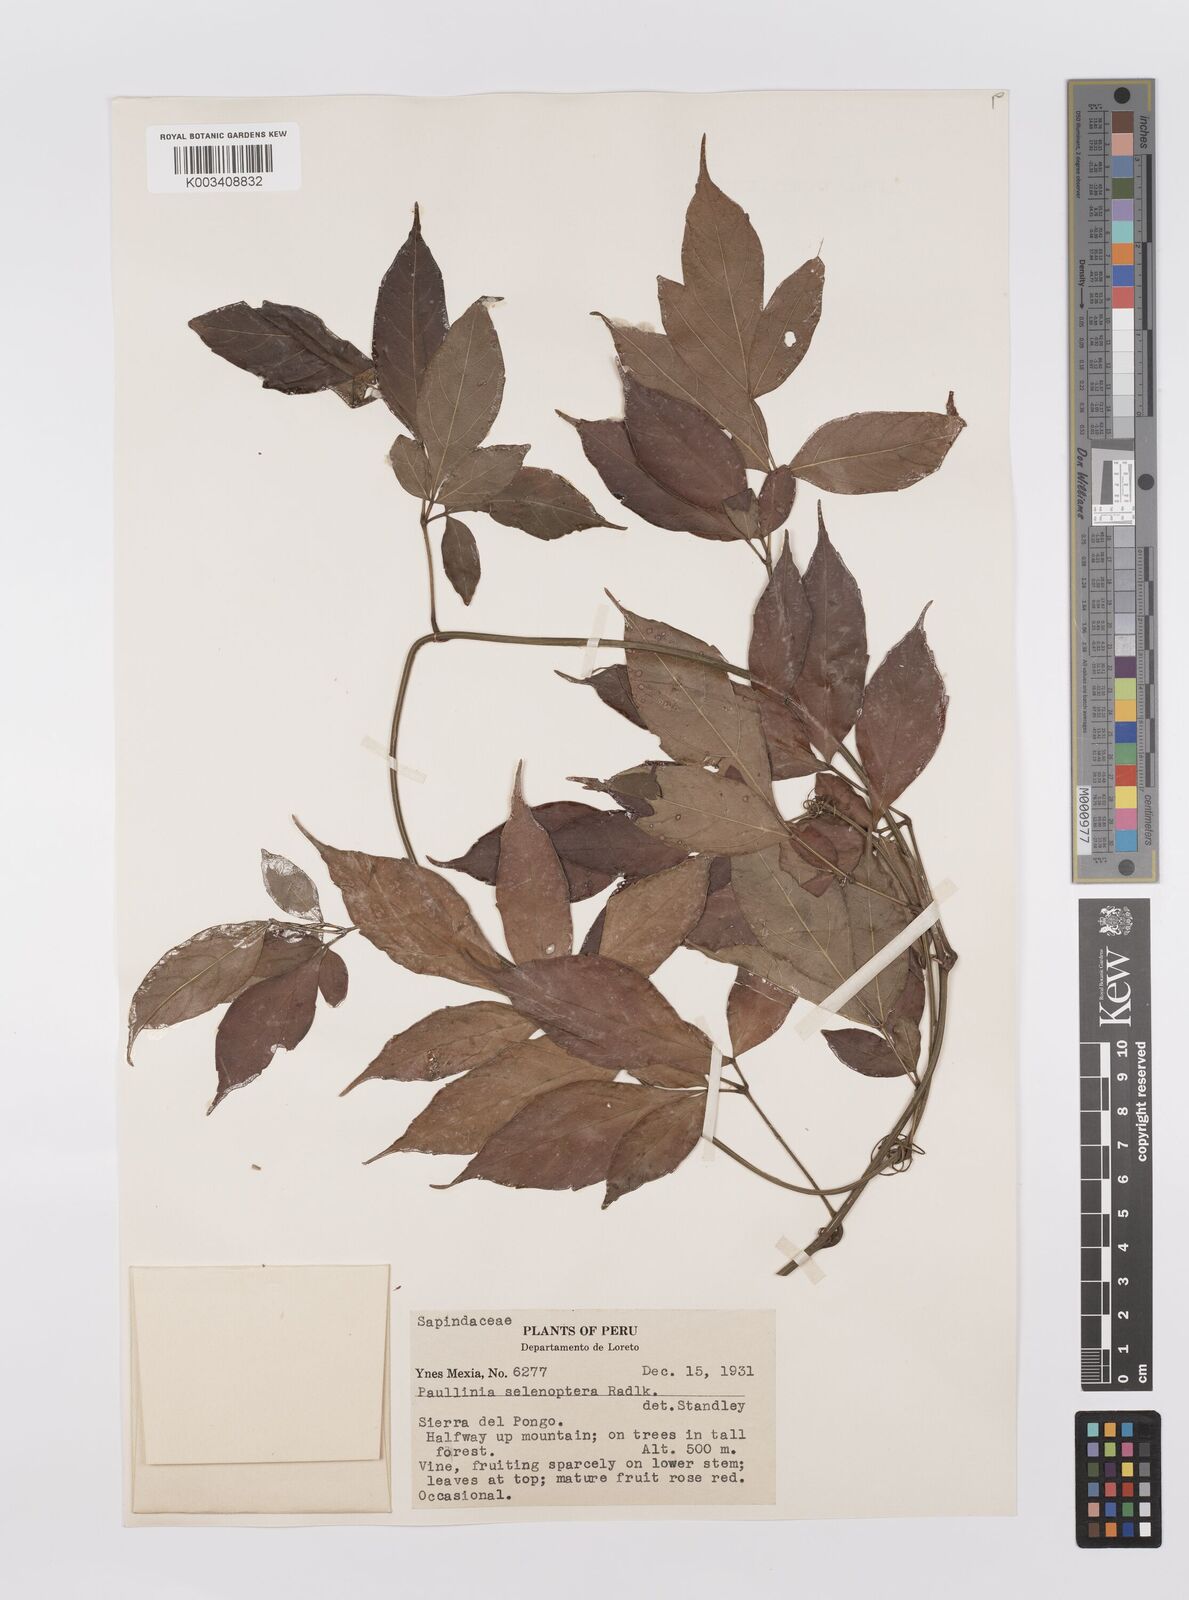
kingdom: Plantae
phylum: Tracheophyta
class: Magnoliopsida
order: Sapindales
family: Sapindaceae
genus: Paullinia
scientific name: Paullinia selenoptera
